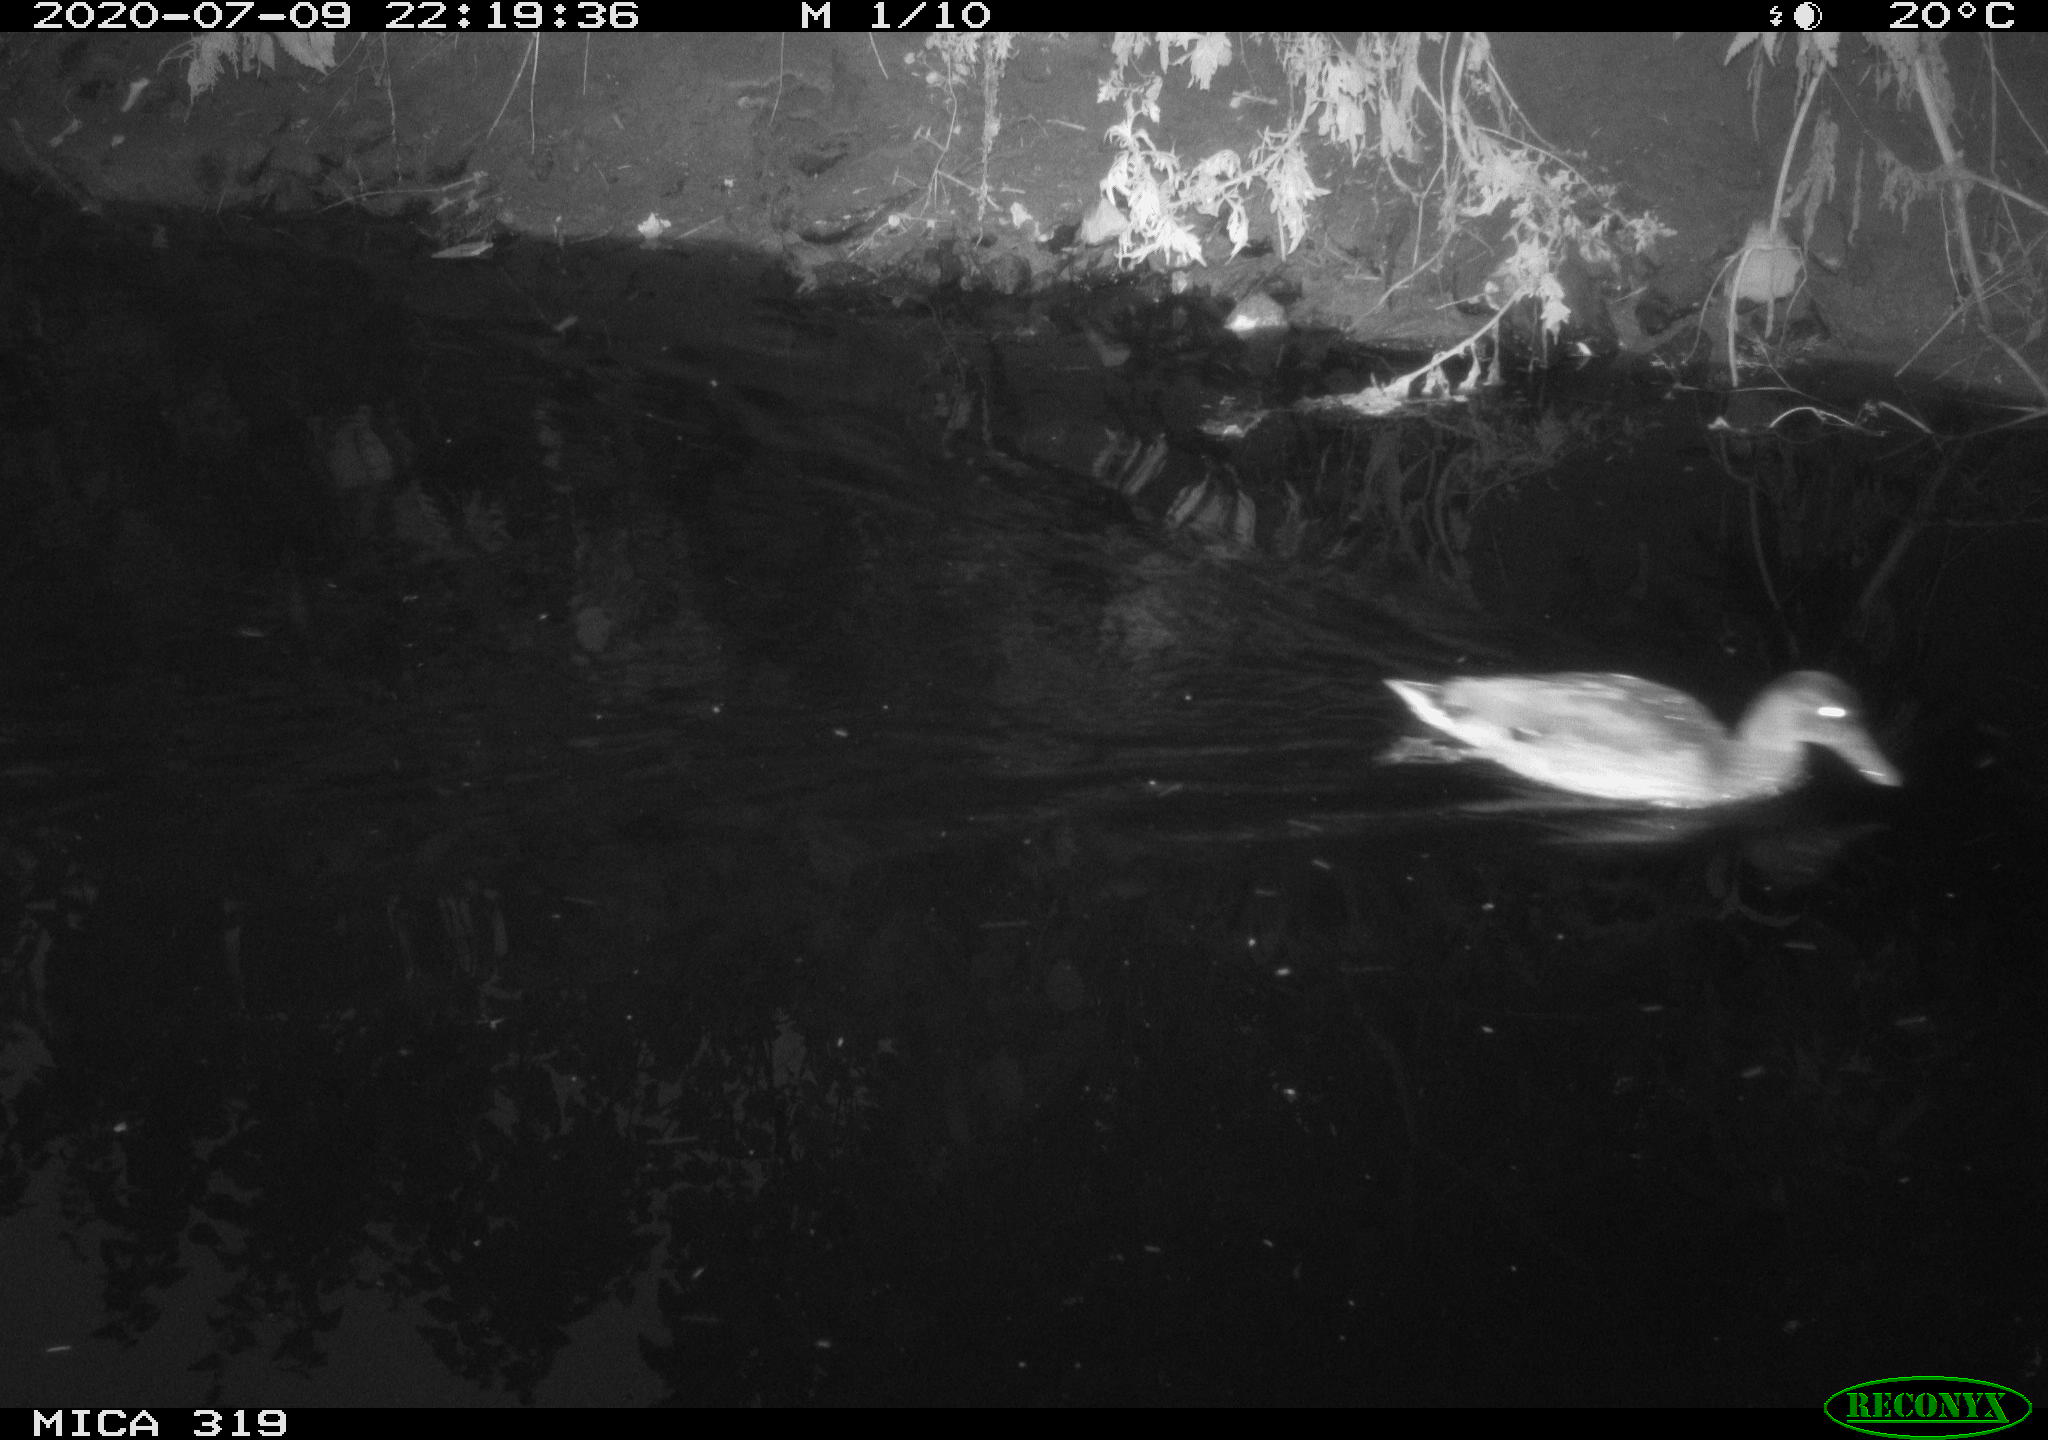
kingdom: Animalia
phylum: Chordata
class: Aves
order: Anseriformes
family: Anatidae
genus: Anas
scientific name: Anas platyrhynchos
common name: Mallard
